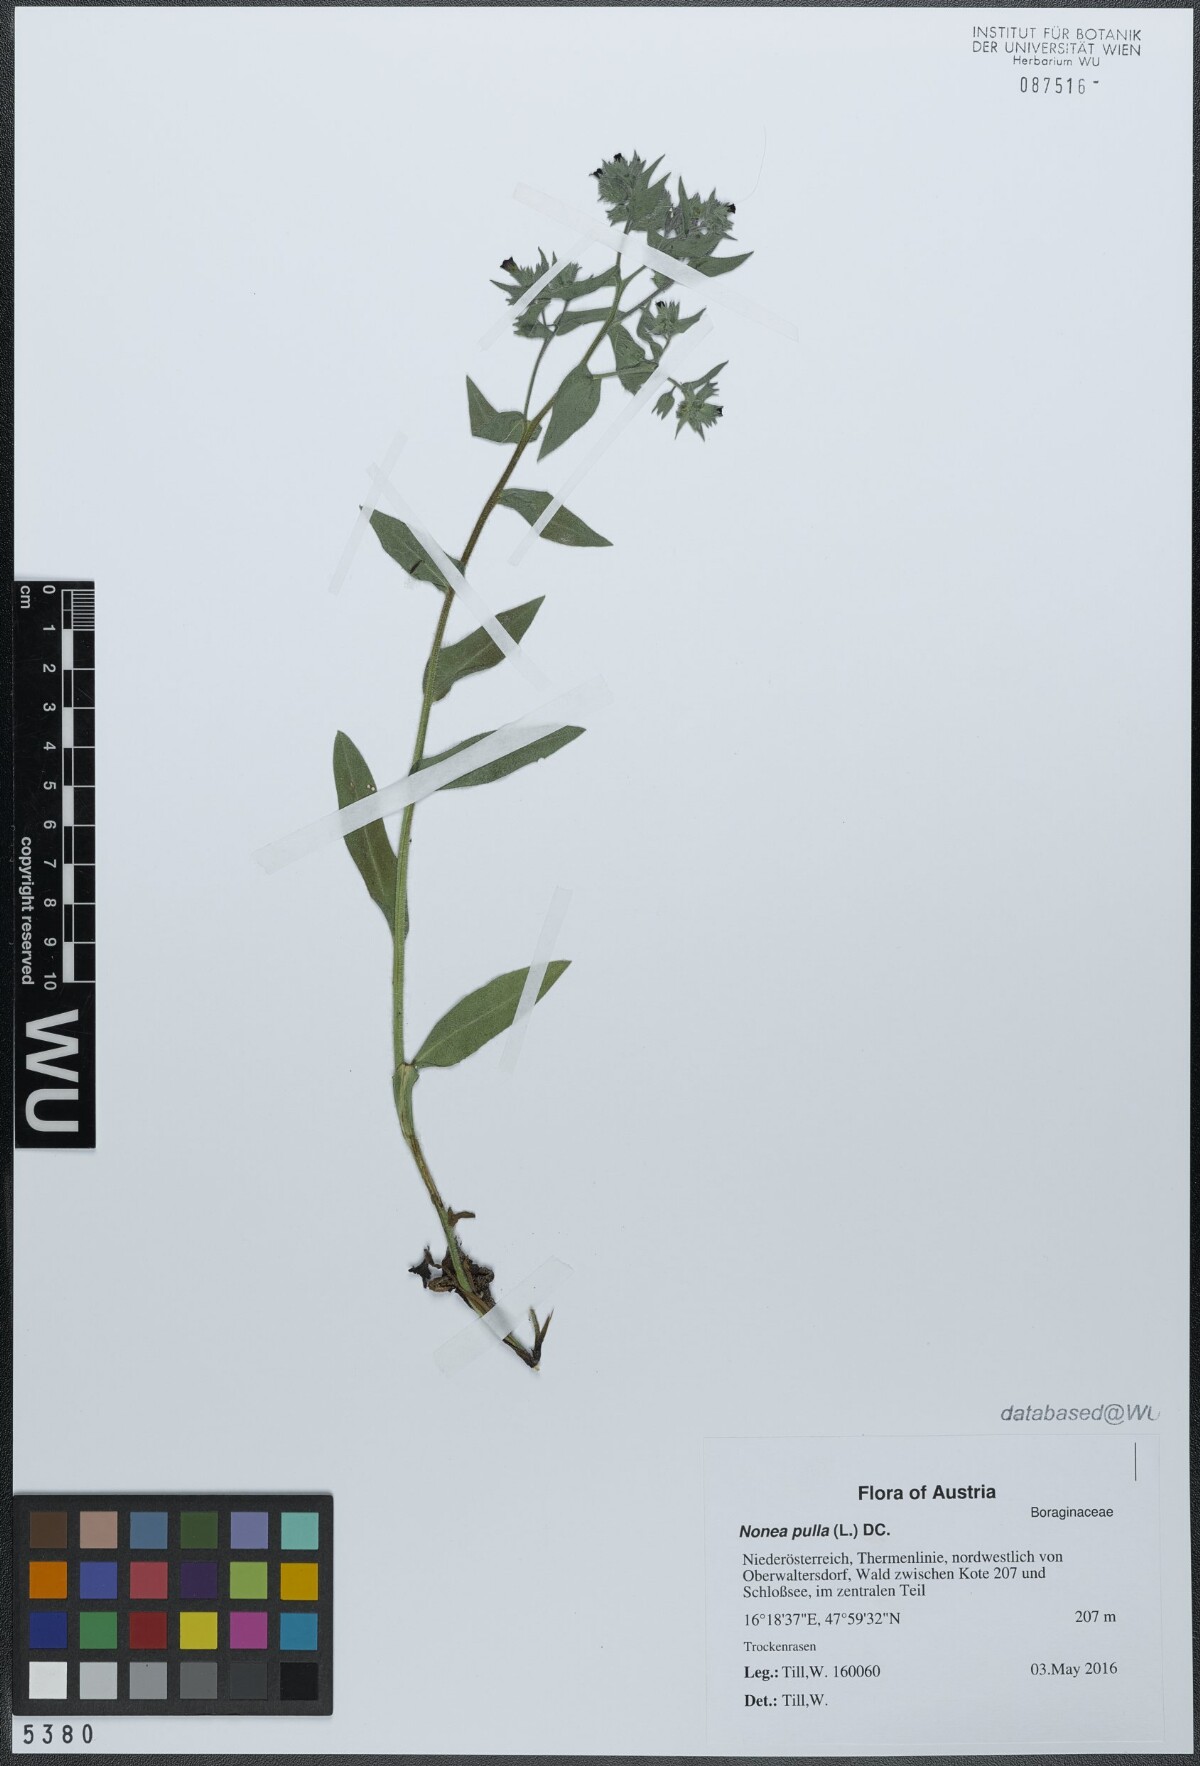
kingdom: Plantae
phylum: Tracheophyta
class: Magnoliopsida
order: Boraginales
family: Boraginaceae
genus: Nonea
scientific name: Nonea pulla
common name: Brown nonea
